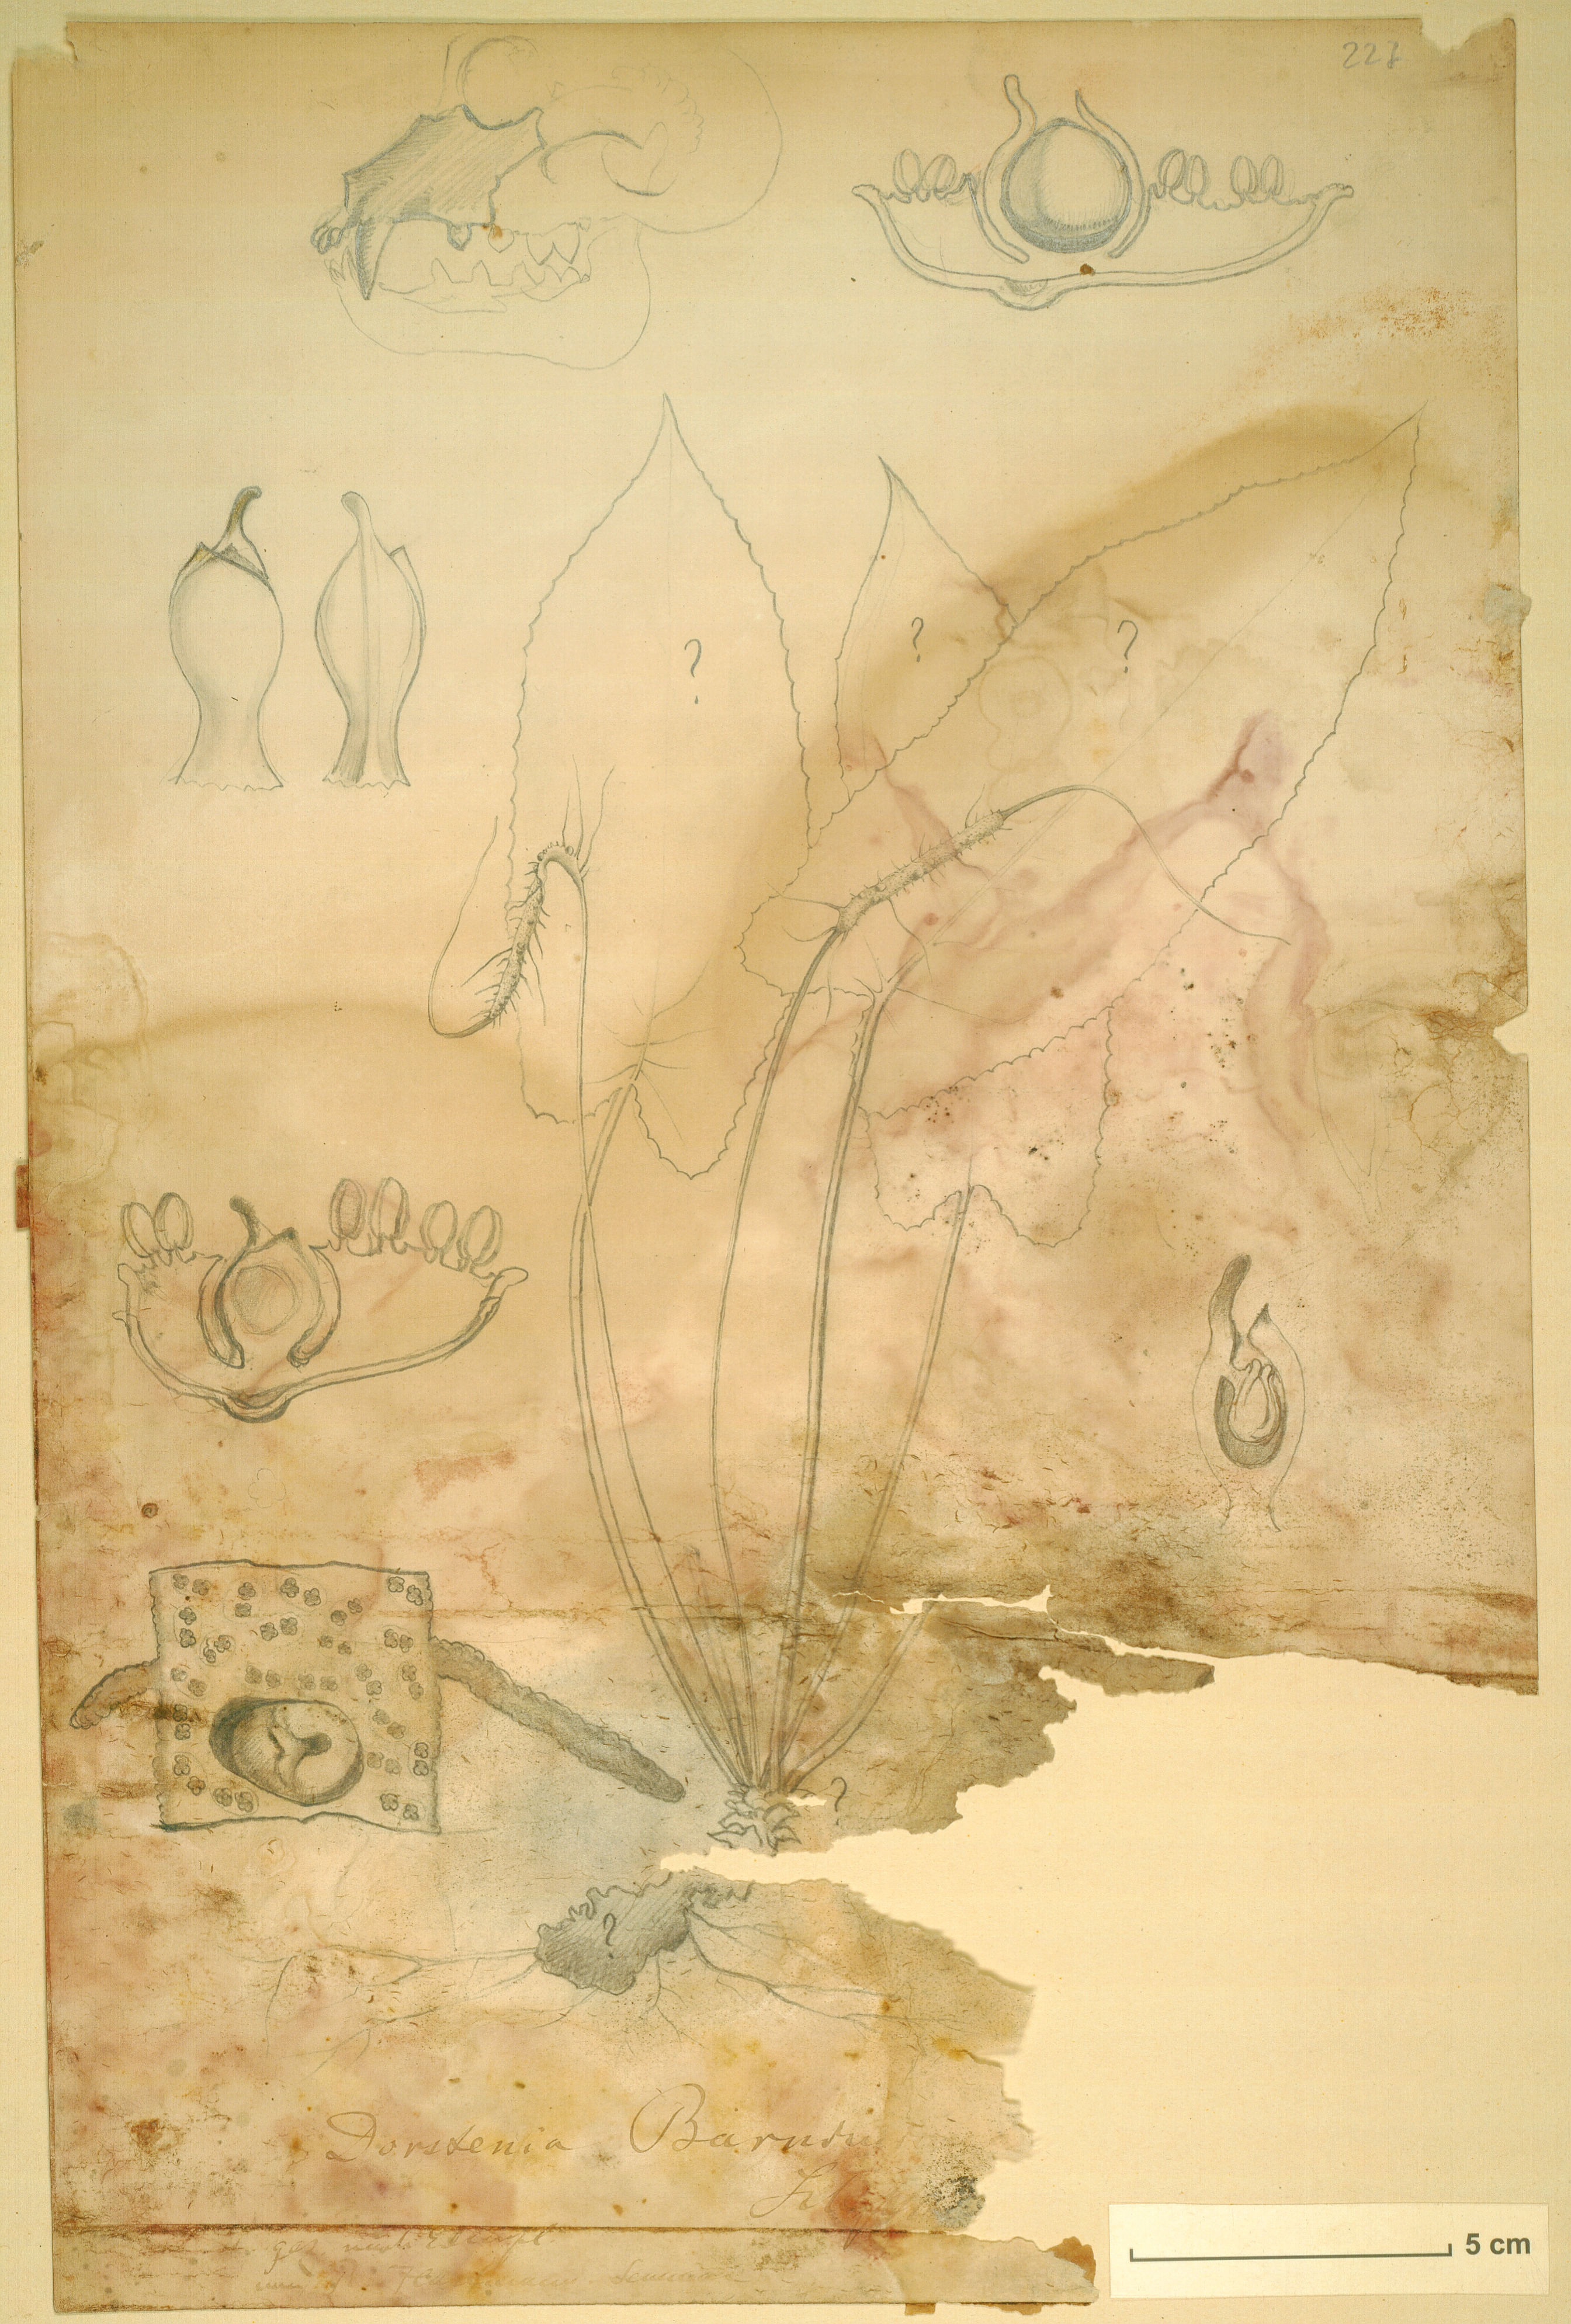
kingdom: Plantae
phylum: Tracheophyta
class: Magnoliopsida
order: Rosales
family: Moraceae
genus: Dorstenia
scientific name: Dorstenia barnimiana
